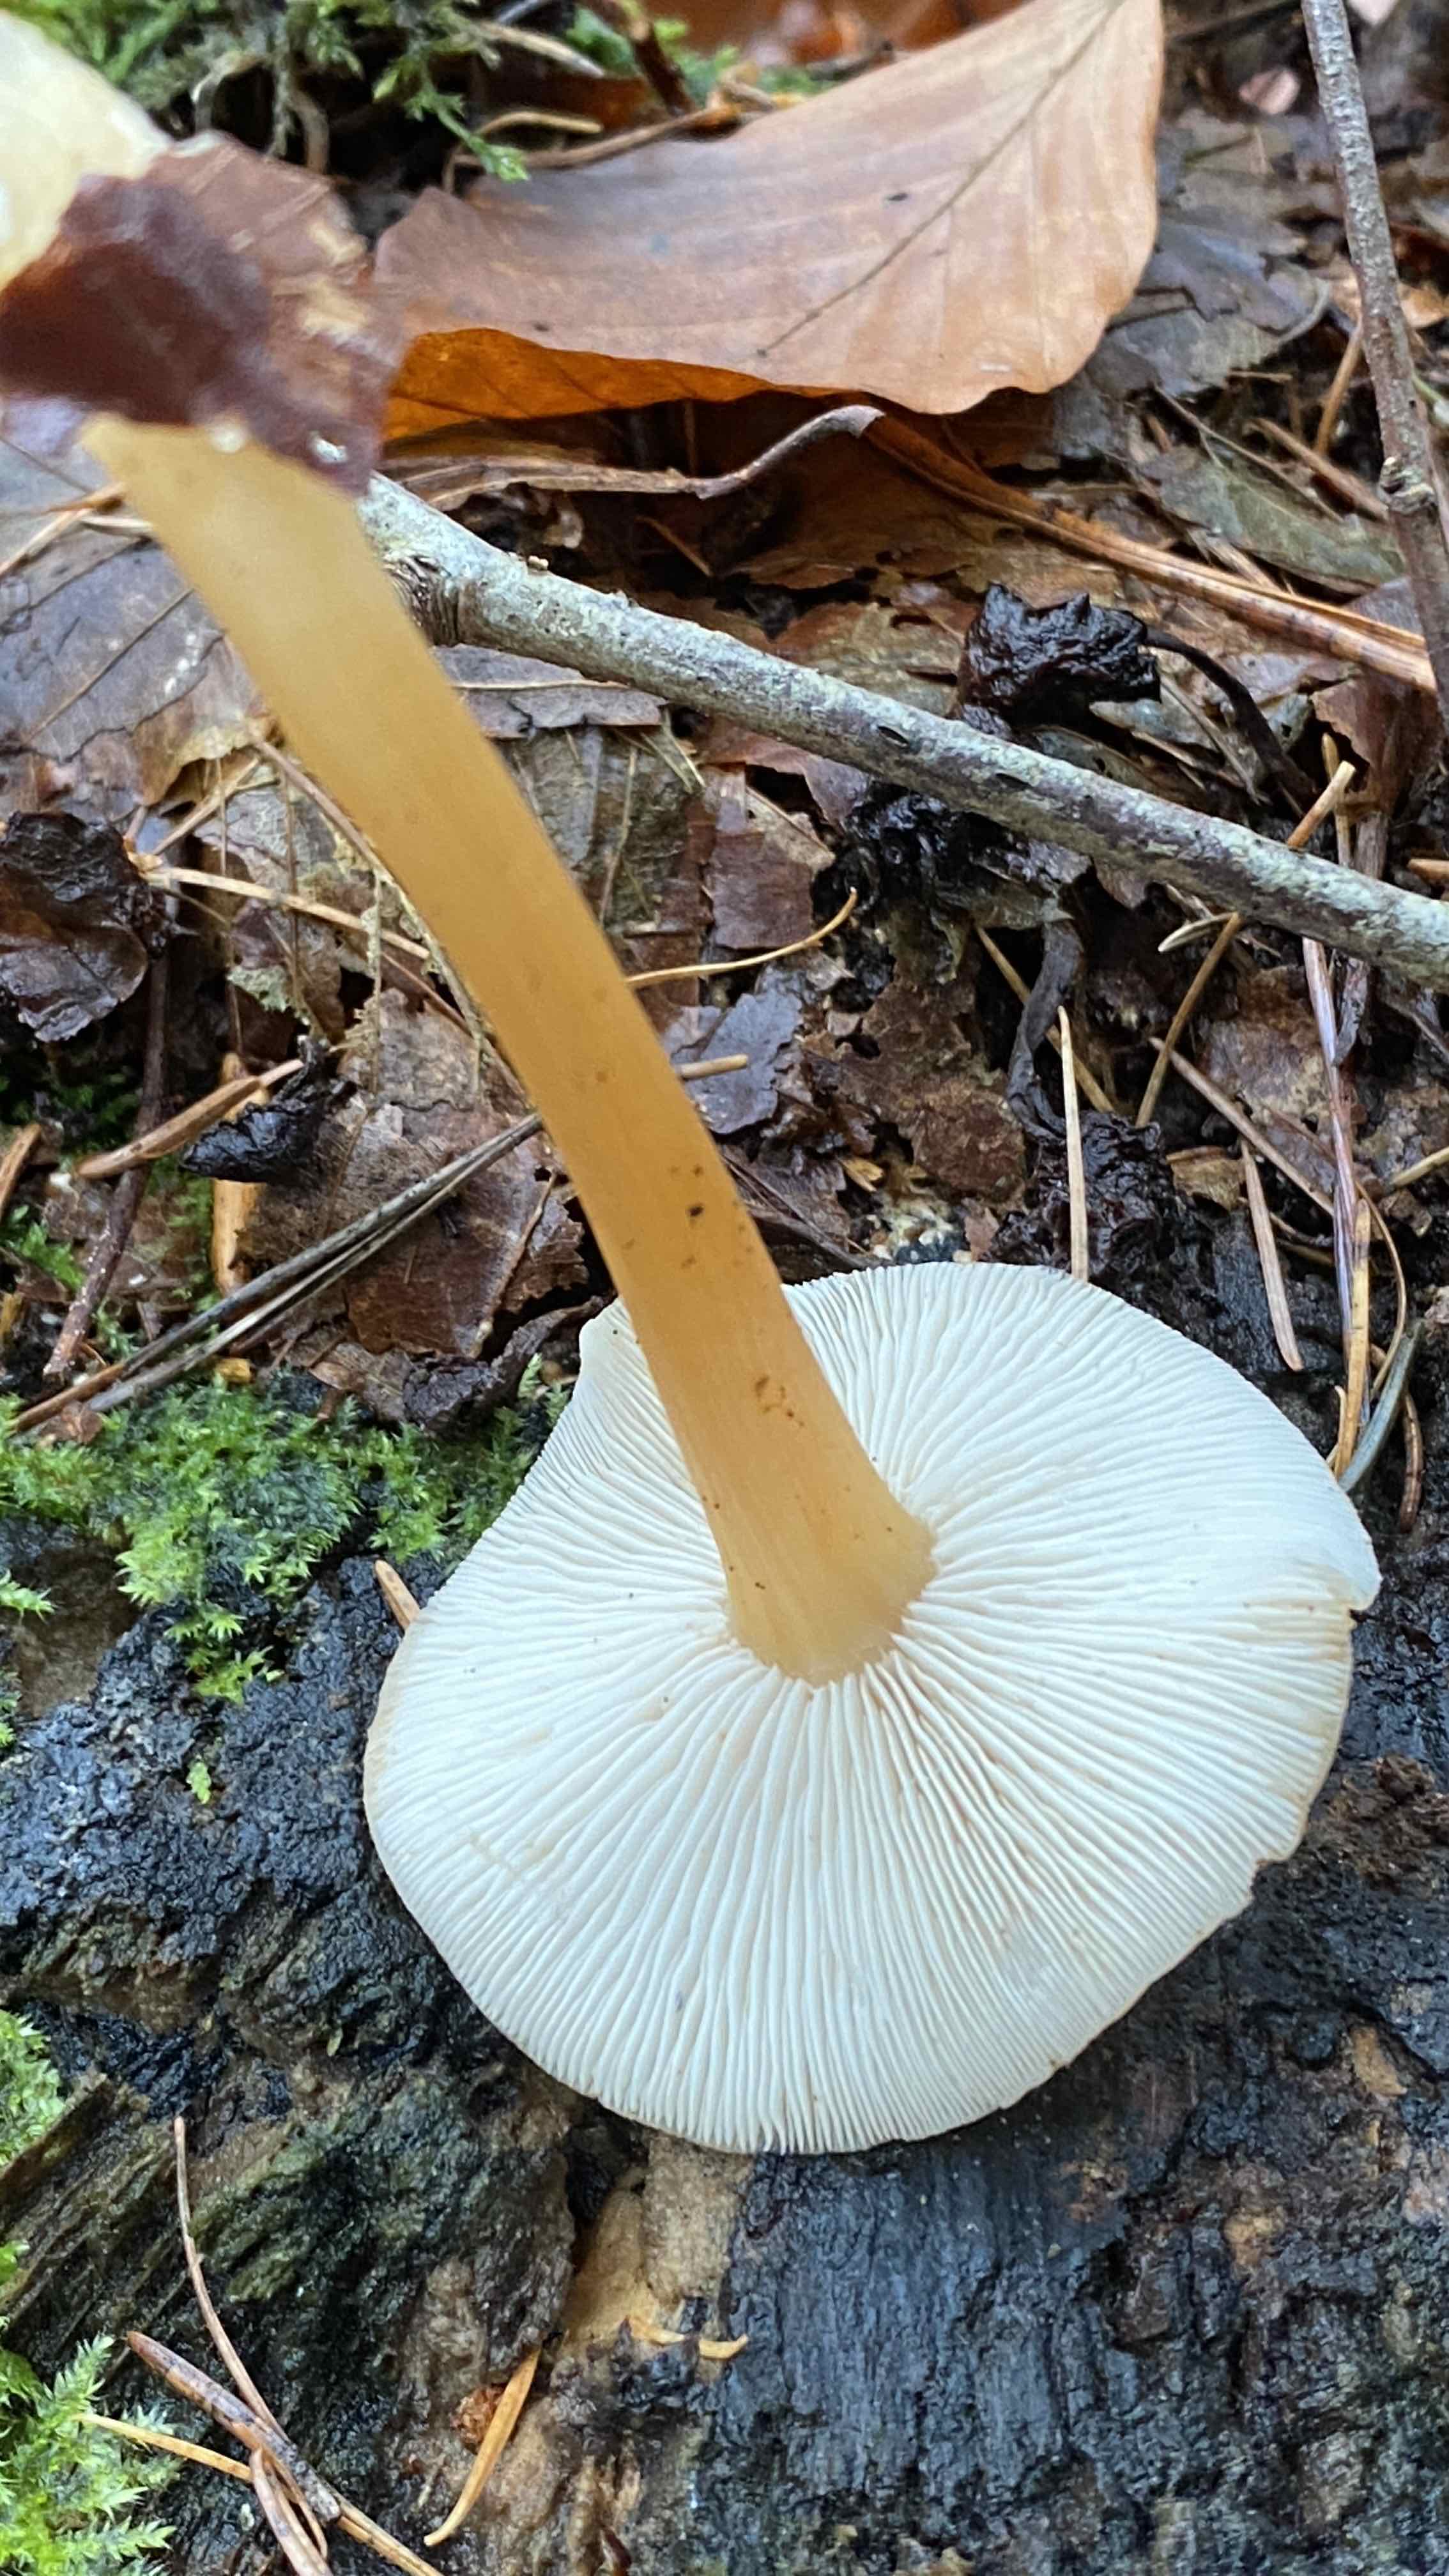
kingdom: Fungi
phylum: Basidiomycota
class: Agaricomycetes
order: Agaricales
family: Omphalotaceae
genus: Gymnopus
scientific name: Gymnopus dryophilus
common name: løv-fladhat
